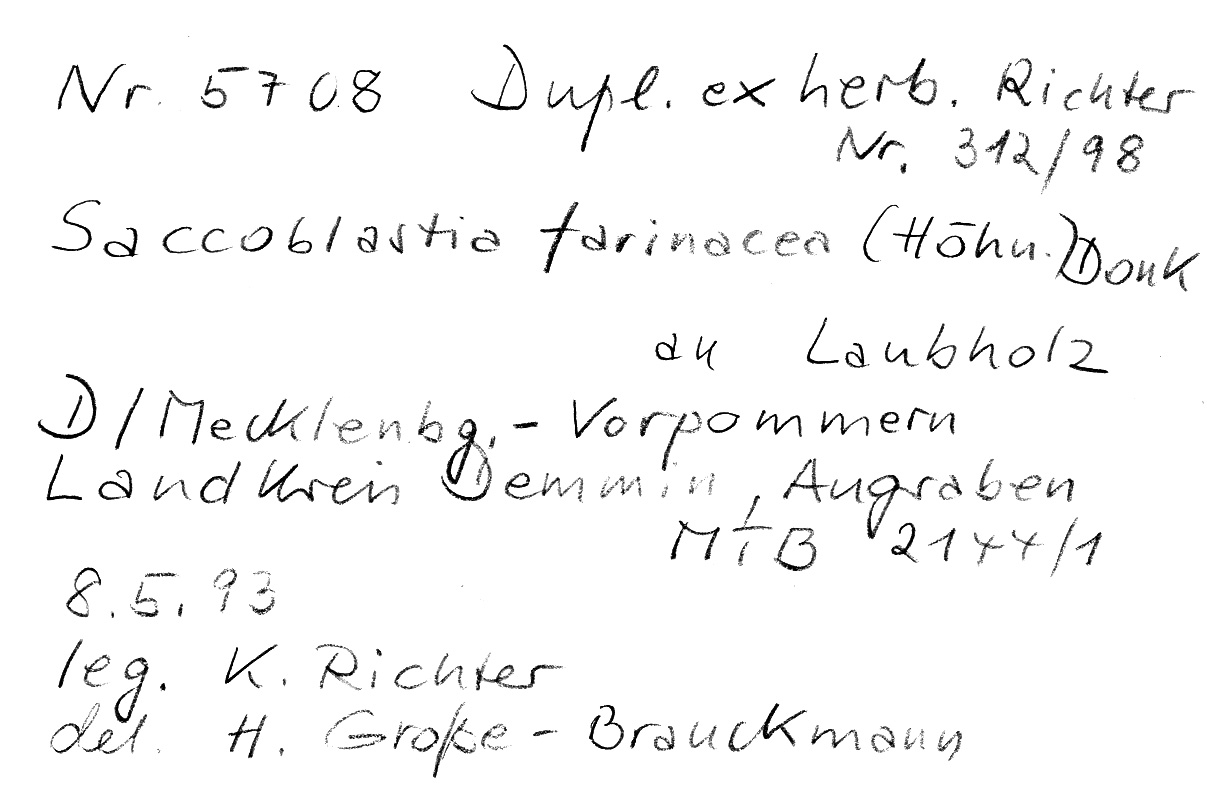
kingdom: Fungi
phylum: Basidiomycota
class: Atractiellomycetes
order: Atractiellales
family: Phleogenaceae
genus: Saccosoma
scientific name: Saccosoma farinaceum
